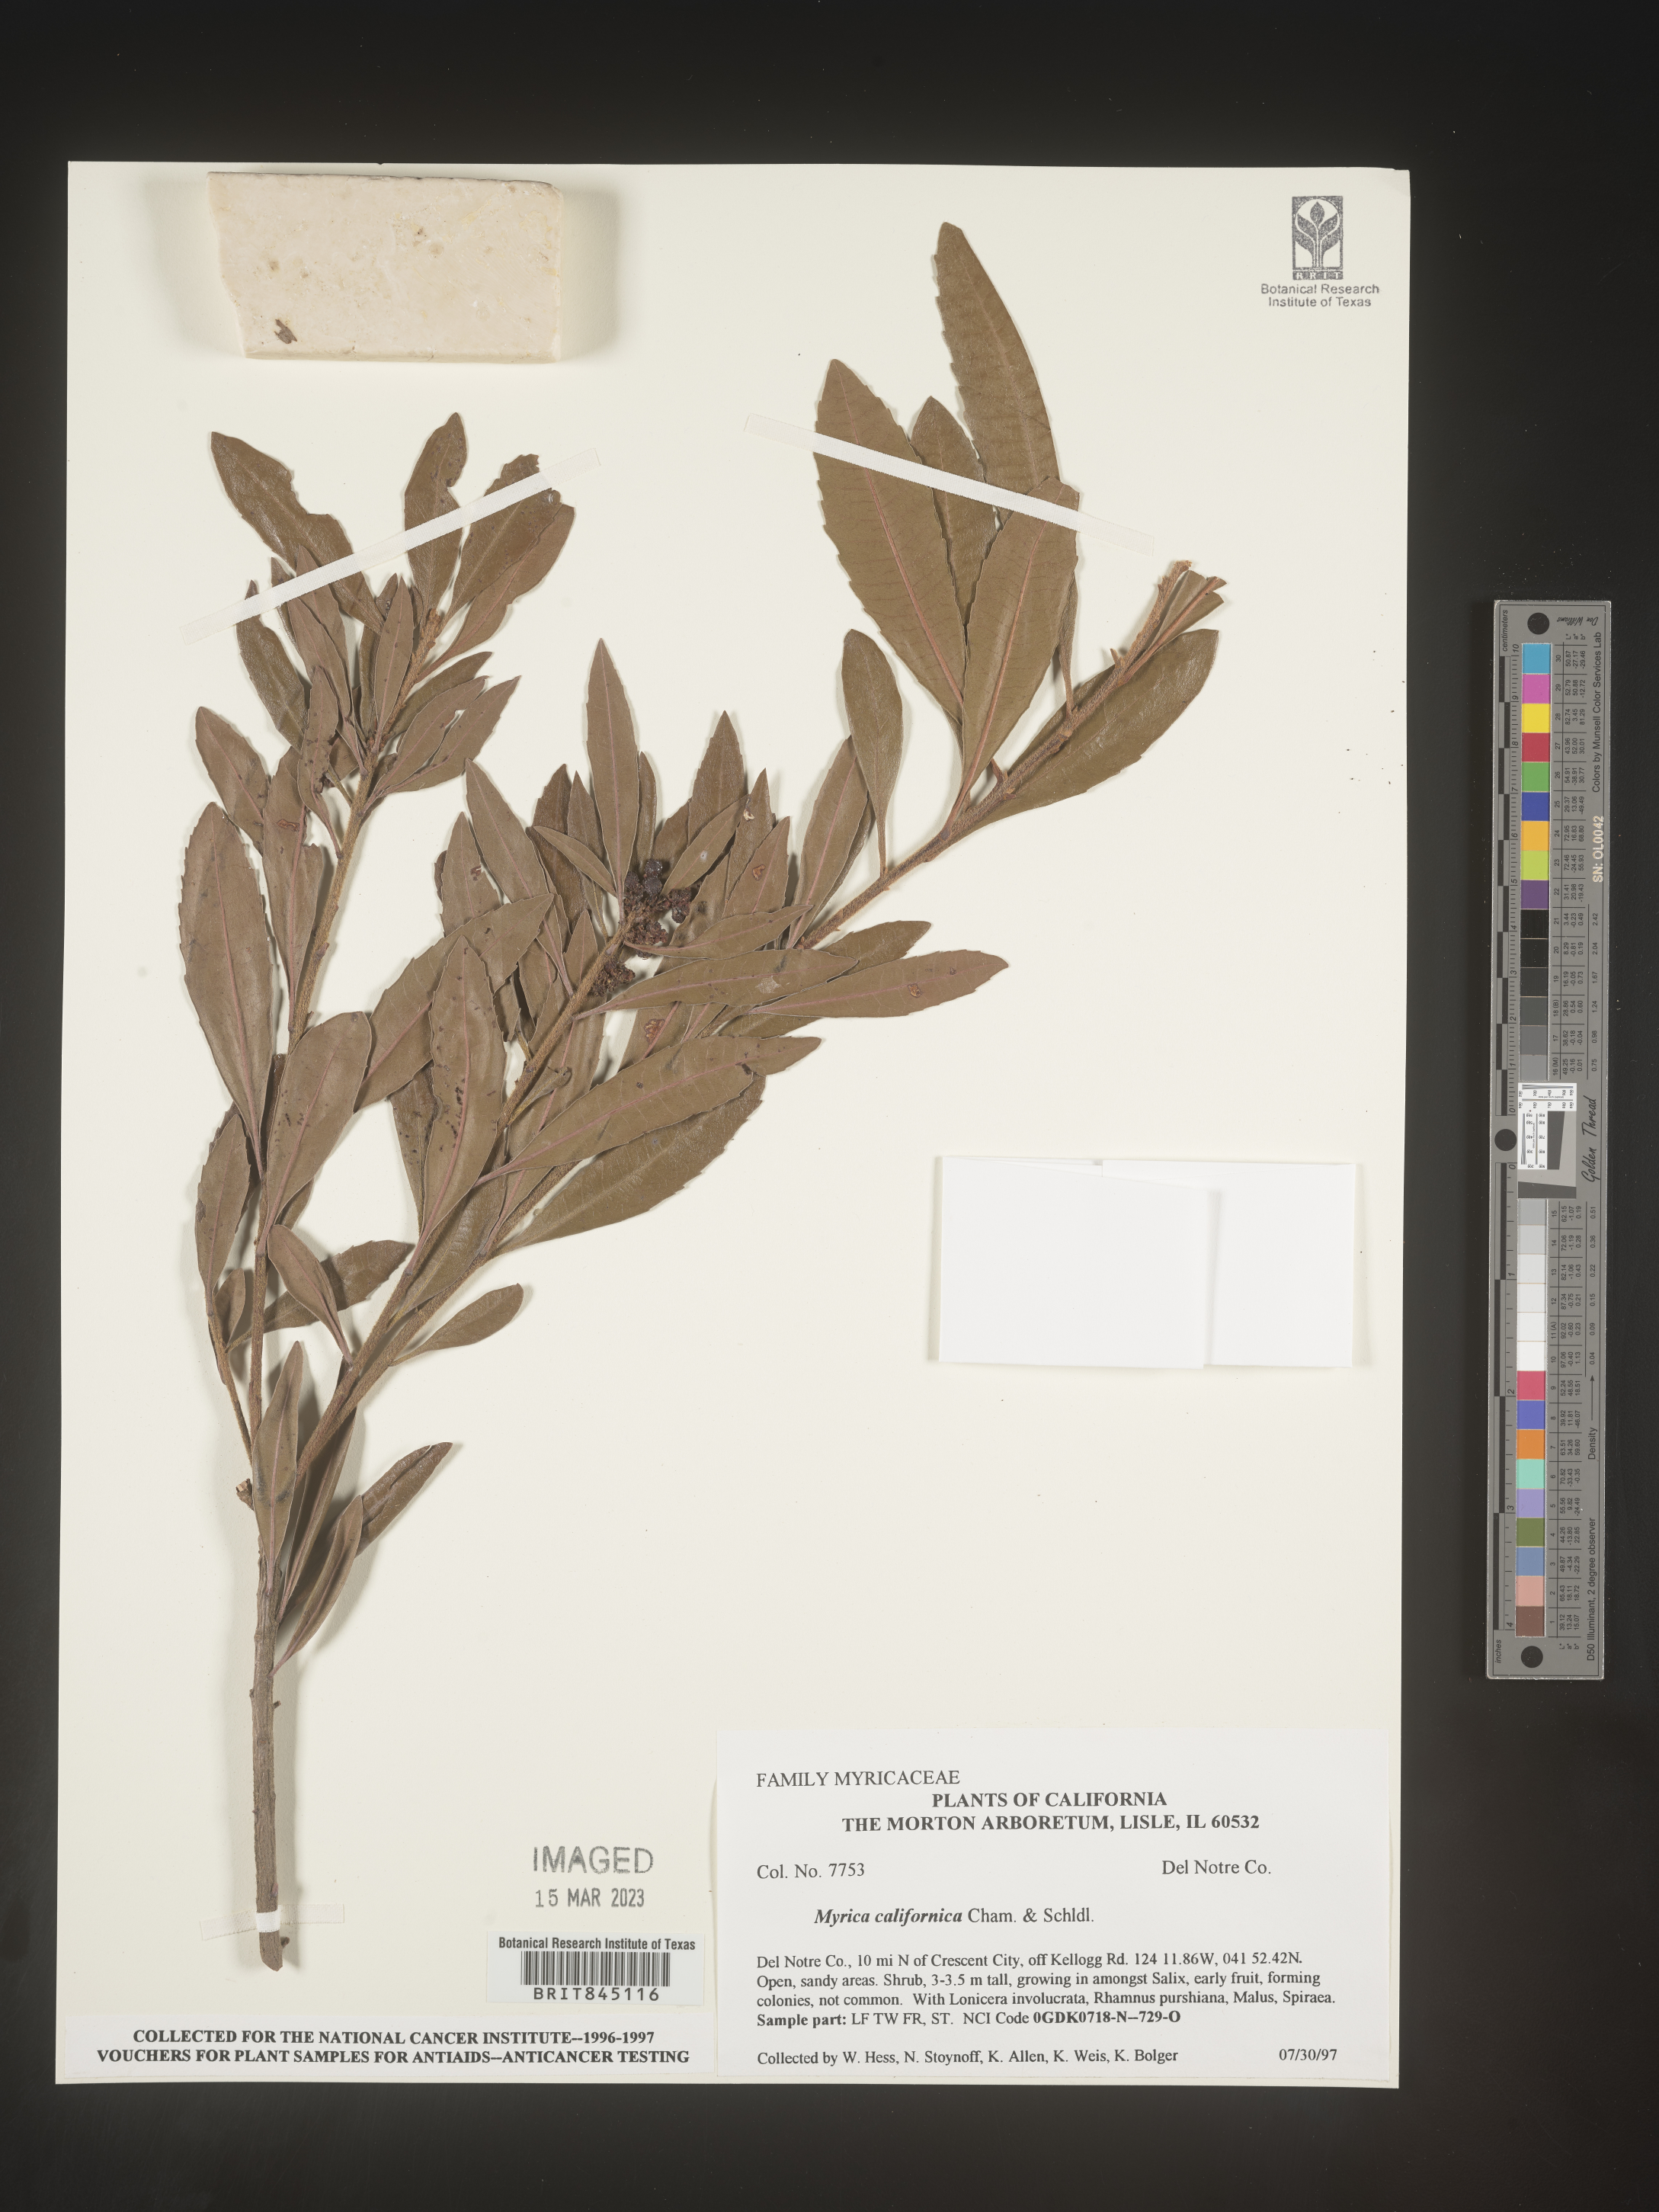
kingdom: Plantae
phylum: Tracheophyta
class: Magnoliopsida
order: Fagales
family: Myricaceae
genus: Morella
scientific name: Morella californica
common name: California wax-myrtle
